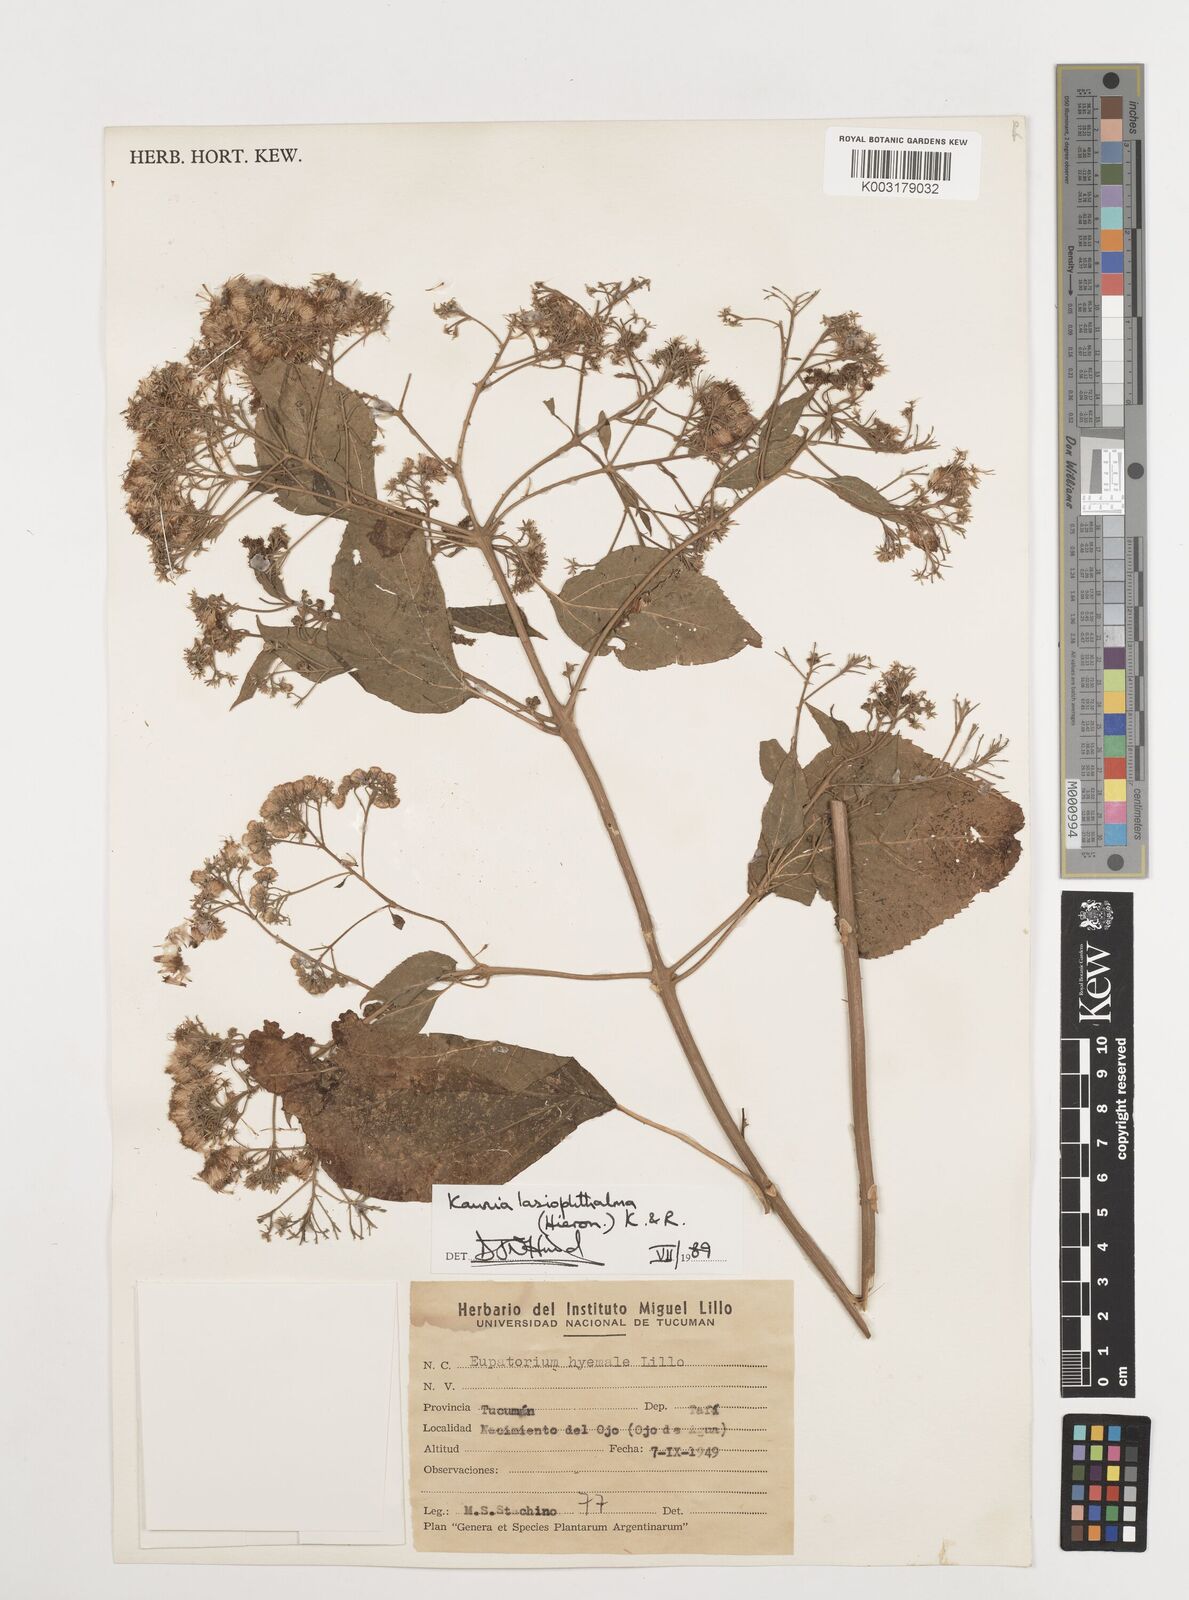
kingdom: Plantae
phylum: Tracheophyta
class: Magnoliopsida
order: Asterales
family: Asteraceae
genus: Kaunia
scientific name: Kaunia lasiophthalma
